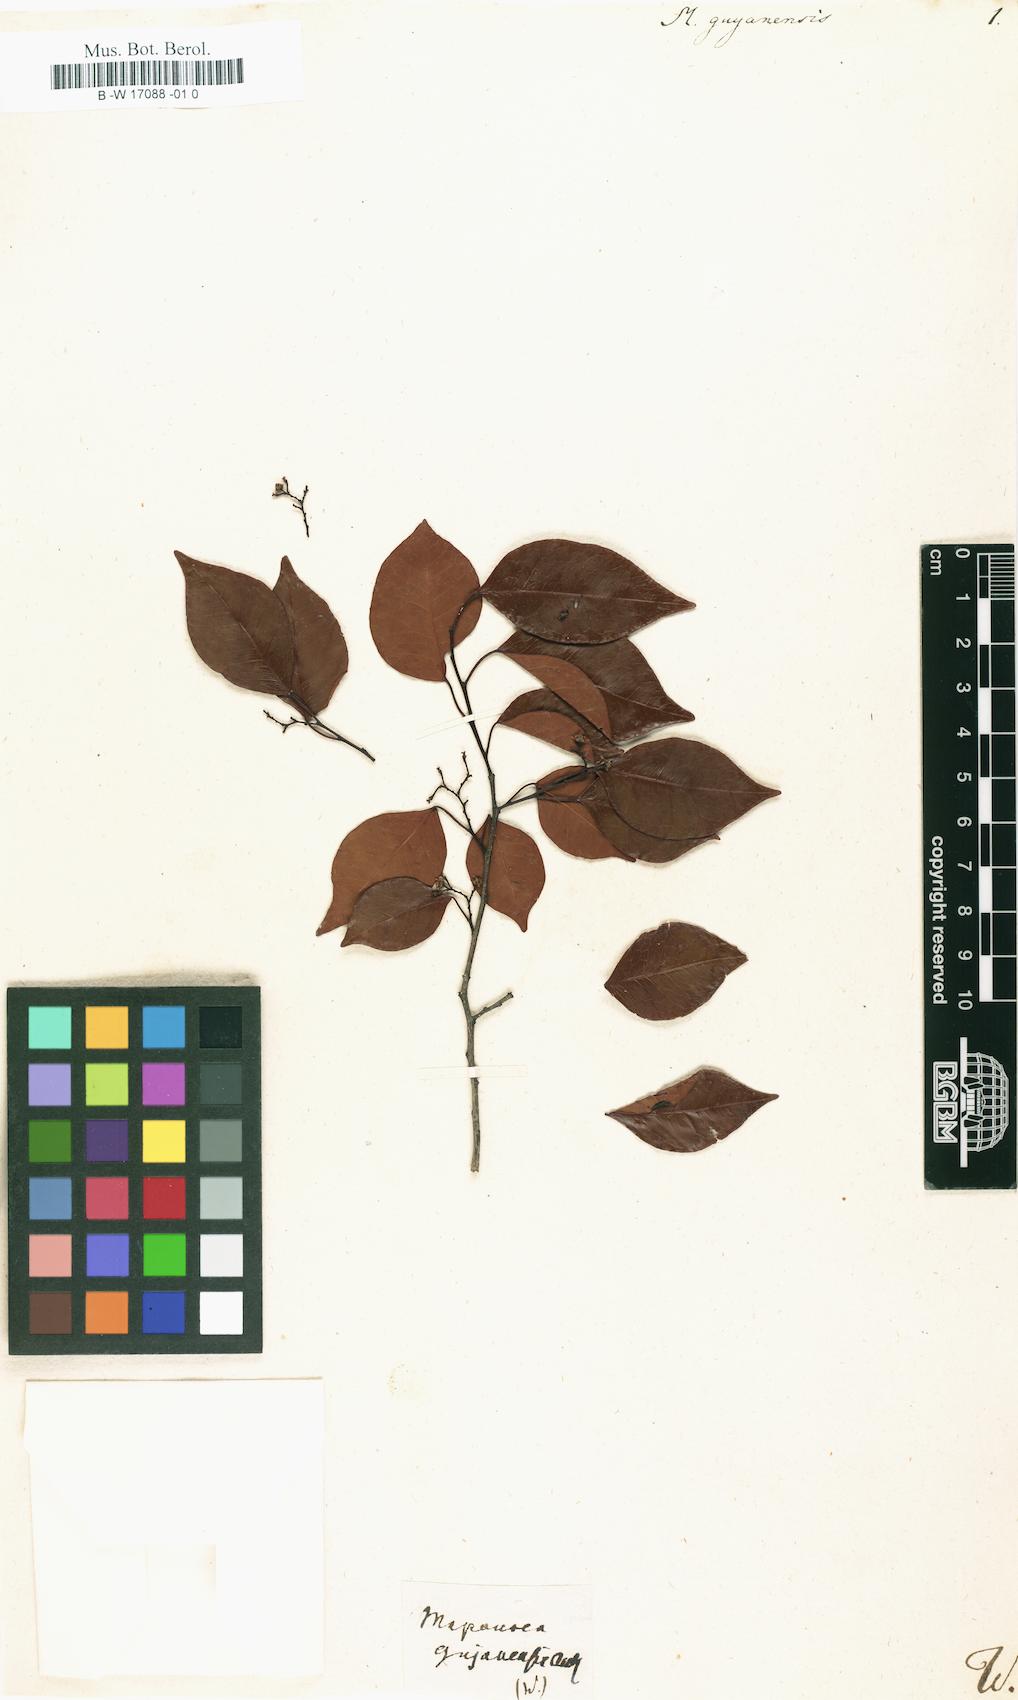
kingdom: Plantae
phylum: Tracheophyta
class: Magnoliopsida
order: Malpighiales
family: Euphorbiaceae
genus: Maprounea
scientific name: Maprounea guianensis
